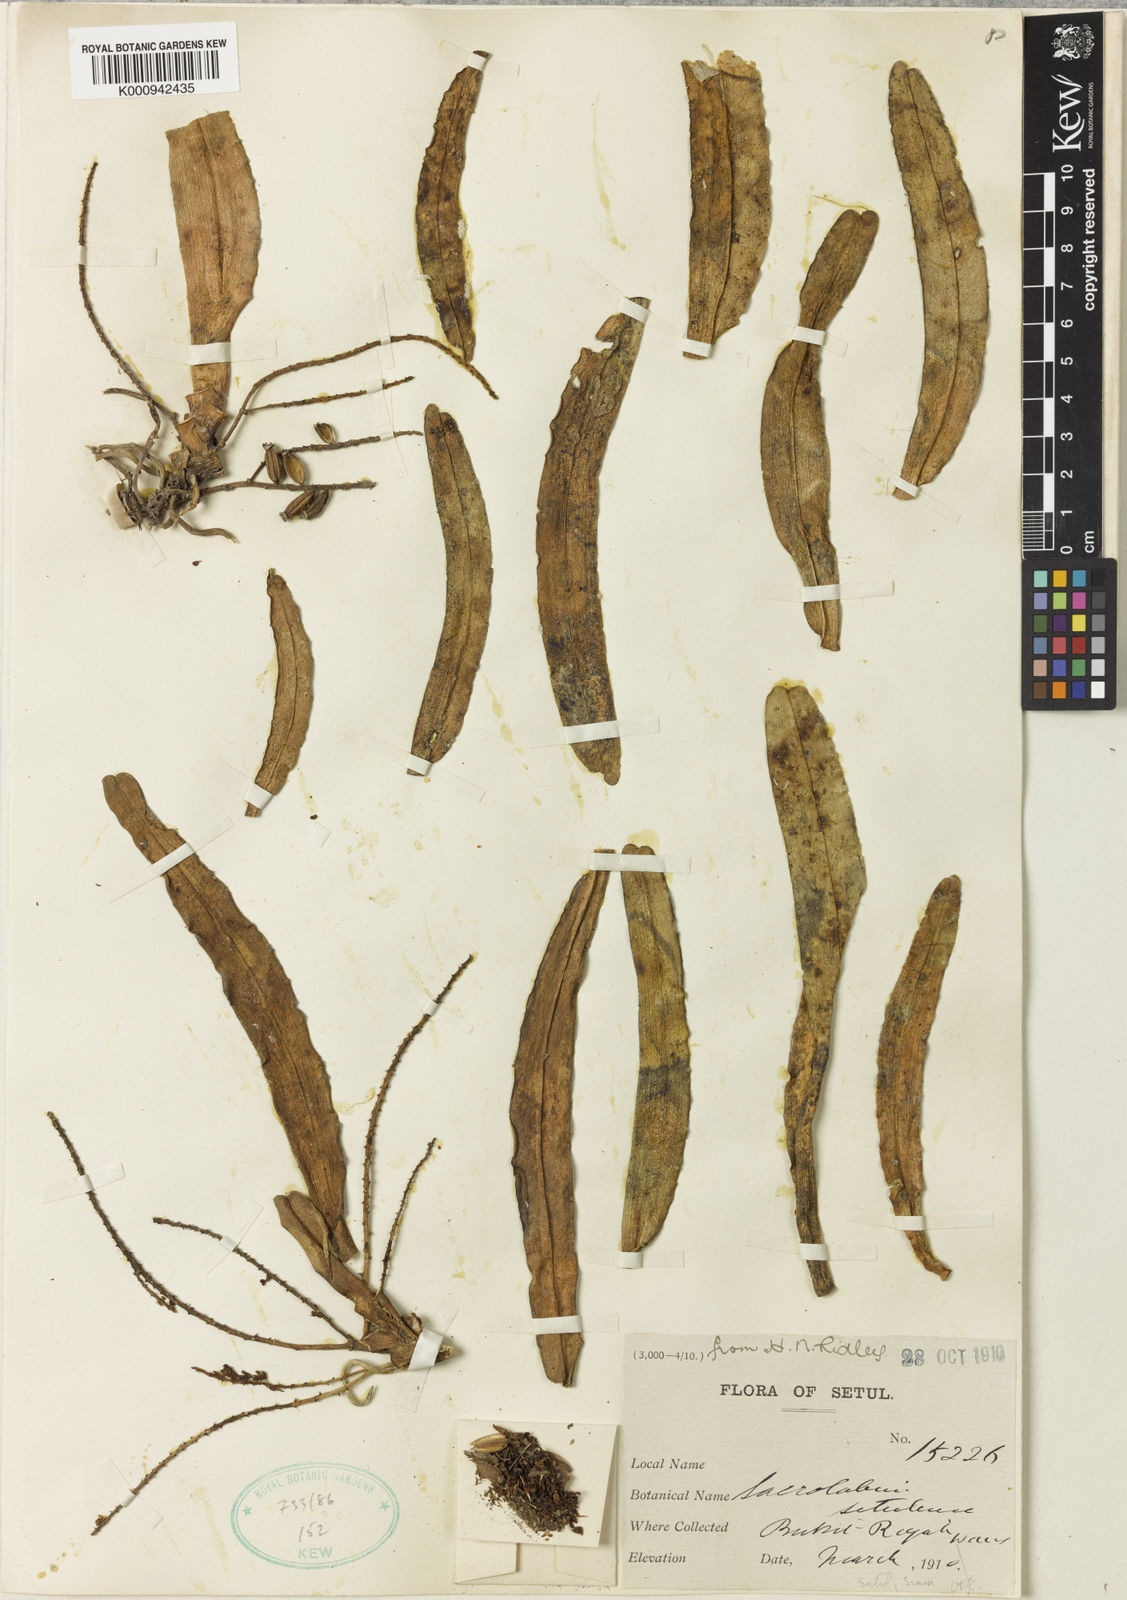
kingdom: Plantae
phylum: Tracheophyta
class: Liliopsida
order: Asparagales
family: Orchidaceae
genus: Pomatocalpa
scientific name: Pomatocalpa spicatum
